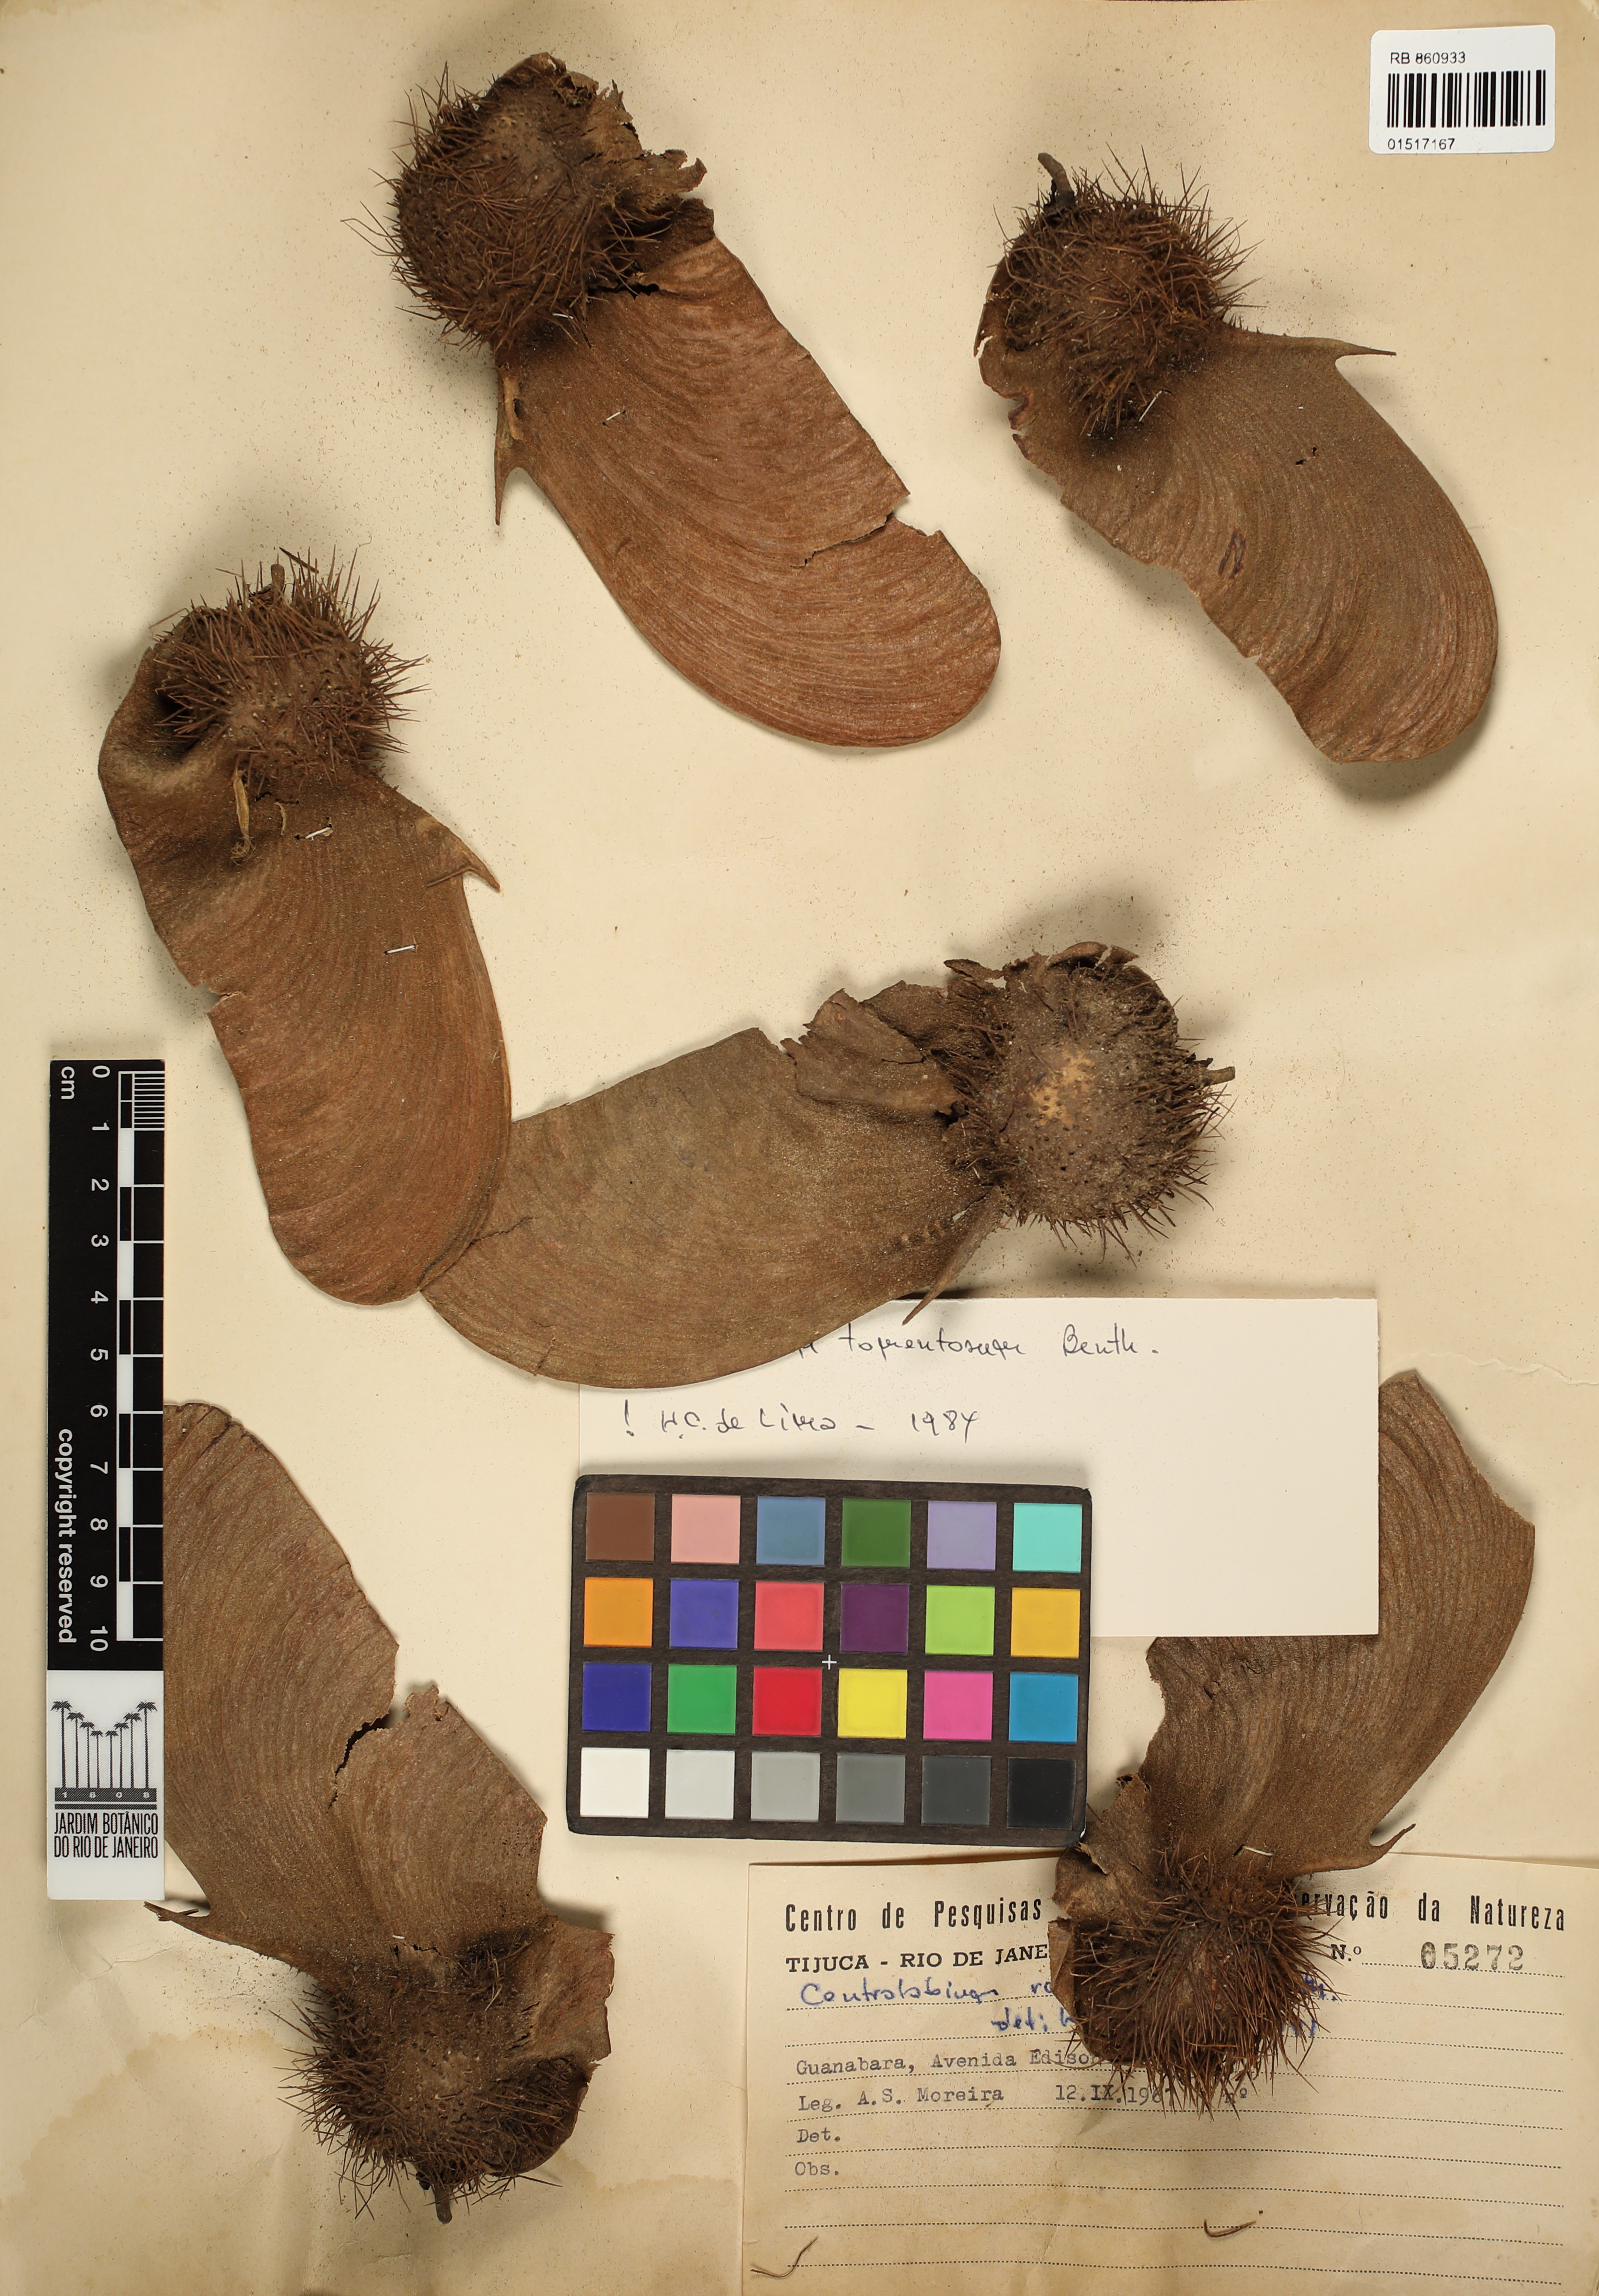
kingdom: Plantae
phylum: Tracheophyta
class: Magnoliopsida
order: Fabales
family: Fabaceae
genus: Centrolobium
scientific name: Centrolobium tomentosum
